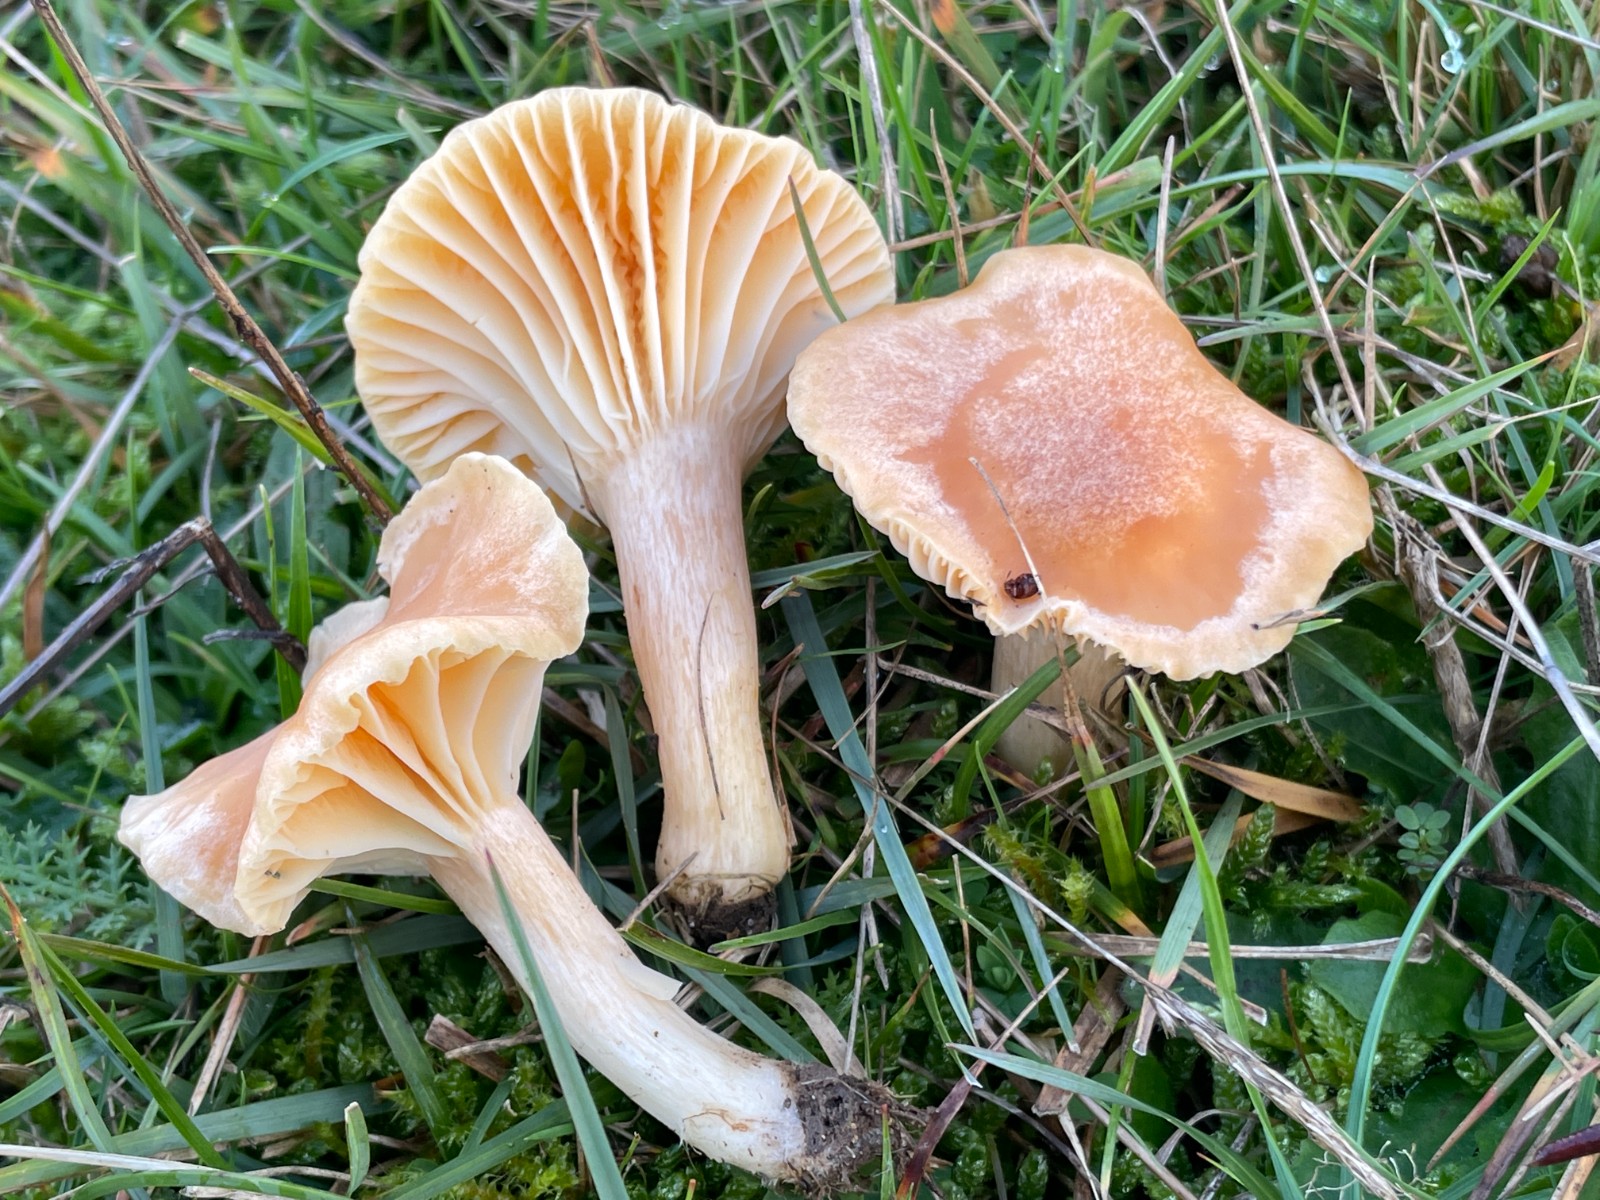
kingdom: Fungi
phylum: Basidiomycota
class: Agaricomycetes
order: Agaricales
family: Hygrophoraceae
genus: Cuphophyllus
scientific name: Cuphophyllus pratensis
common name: eng-vokshat
